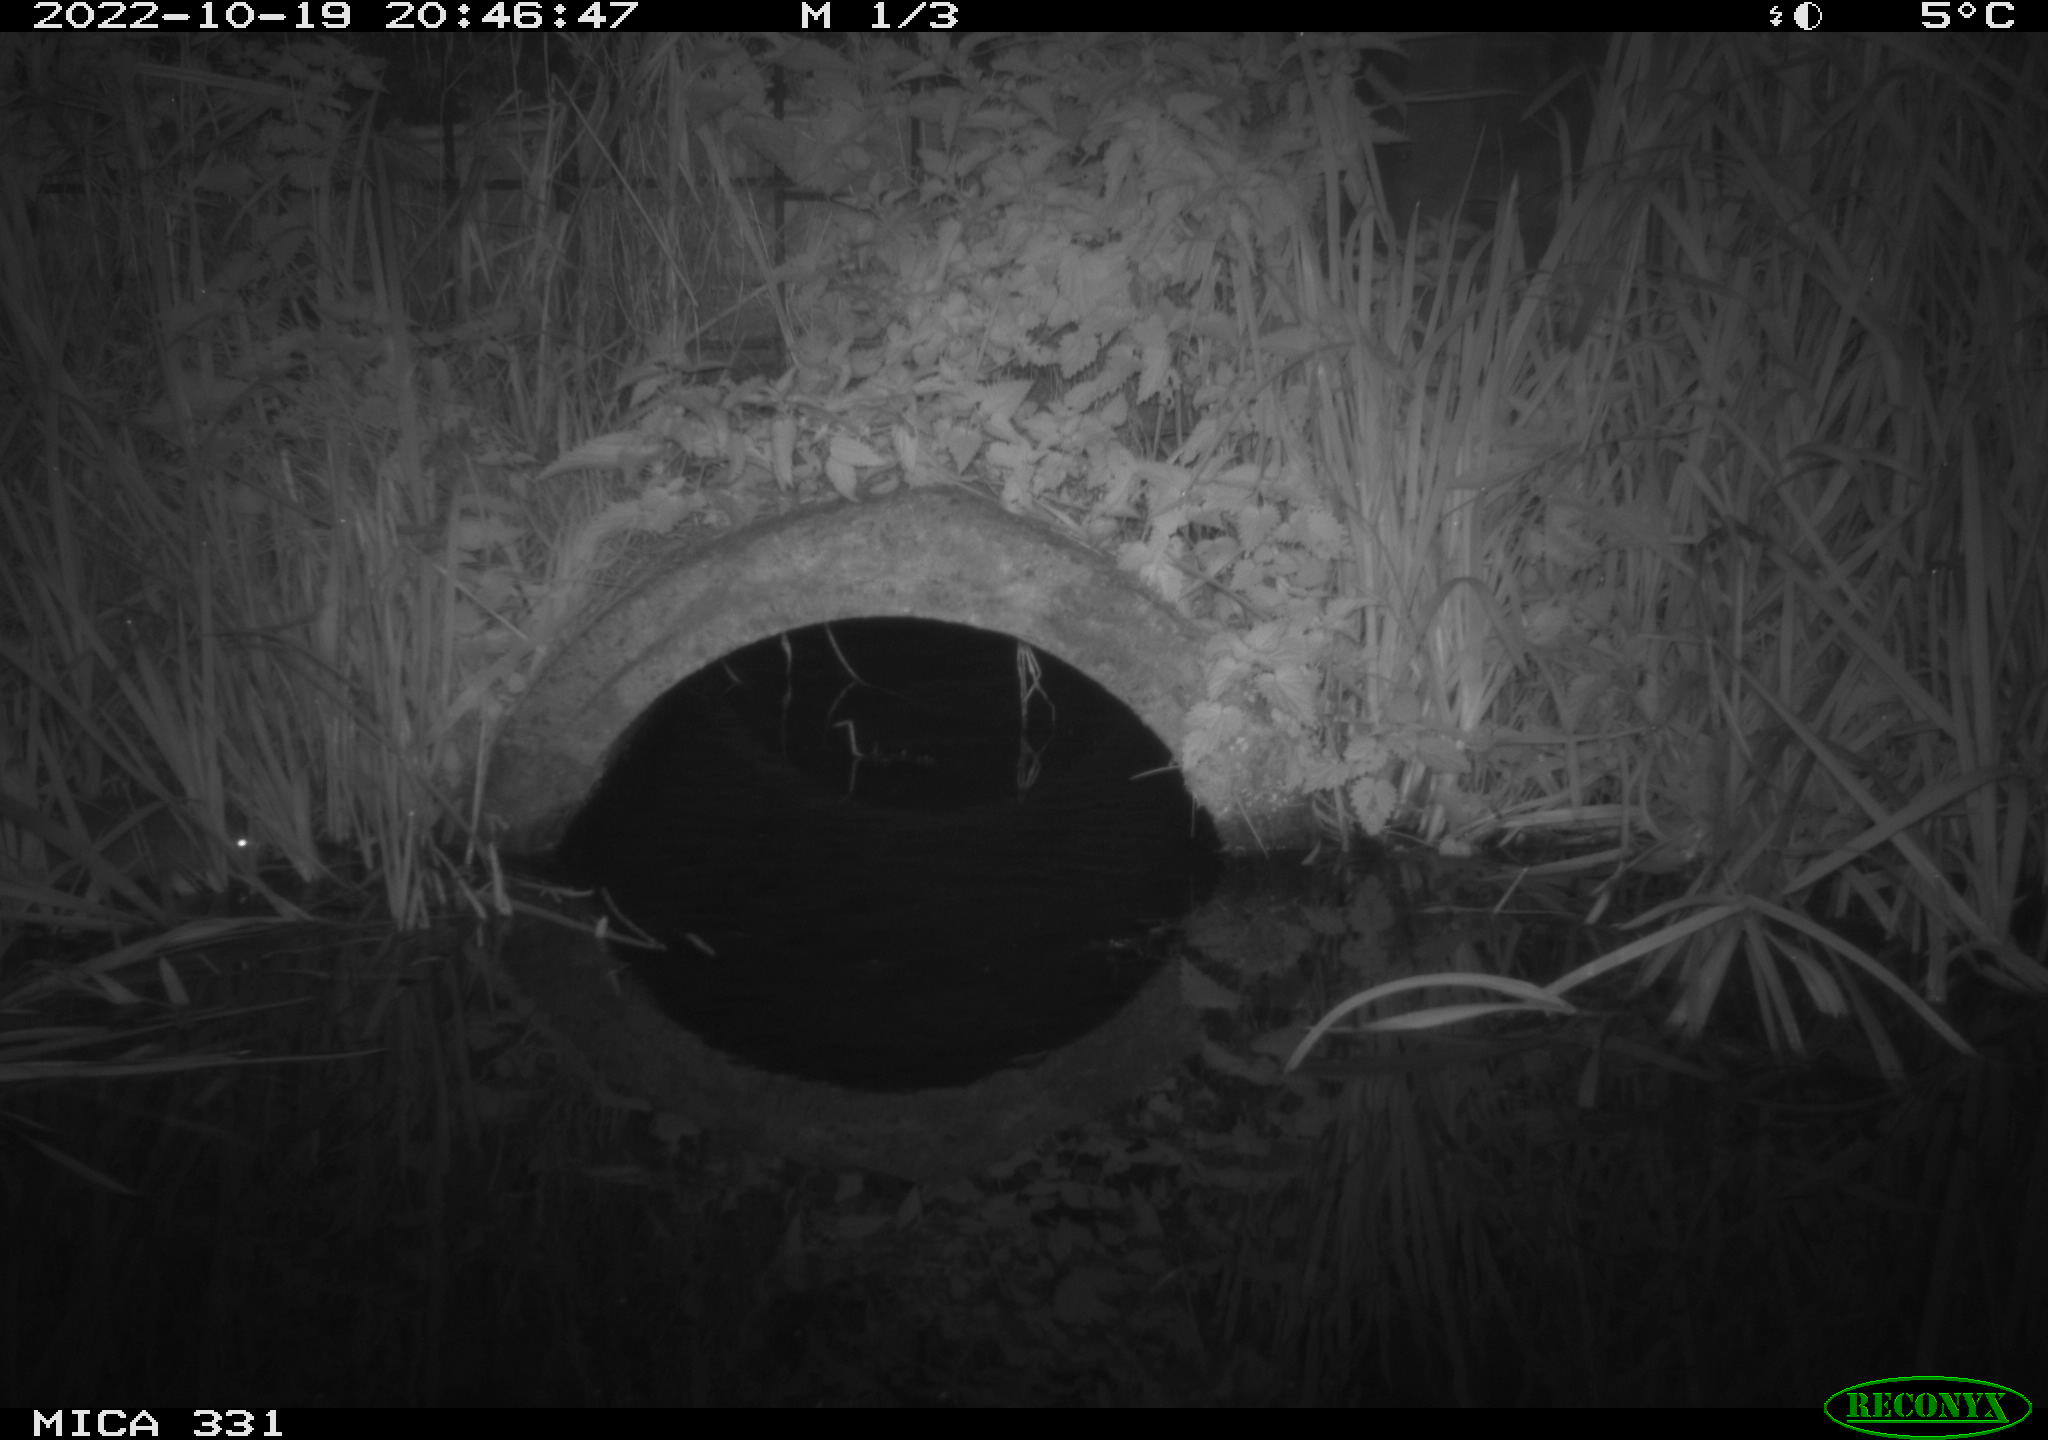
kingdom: Animalia
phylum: Chordata
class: Mammalia
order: Rodentia
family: Muridae
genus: Rattus
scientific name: Rattus norvegicus
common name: Brown rat
